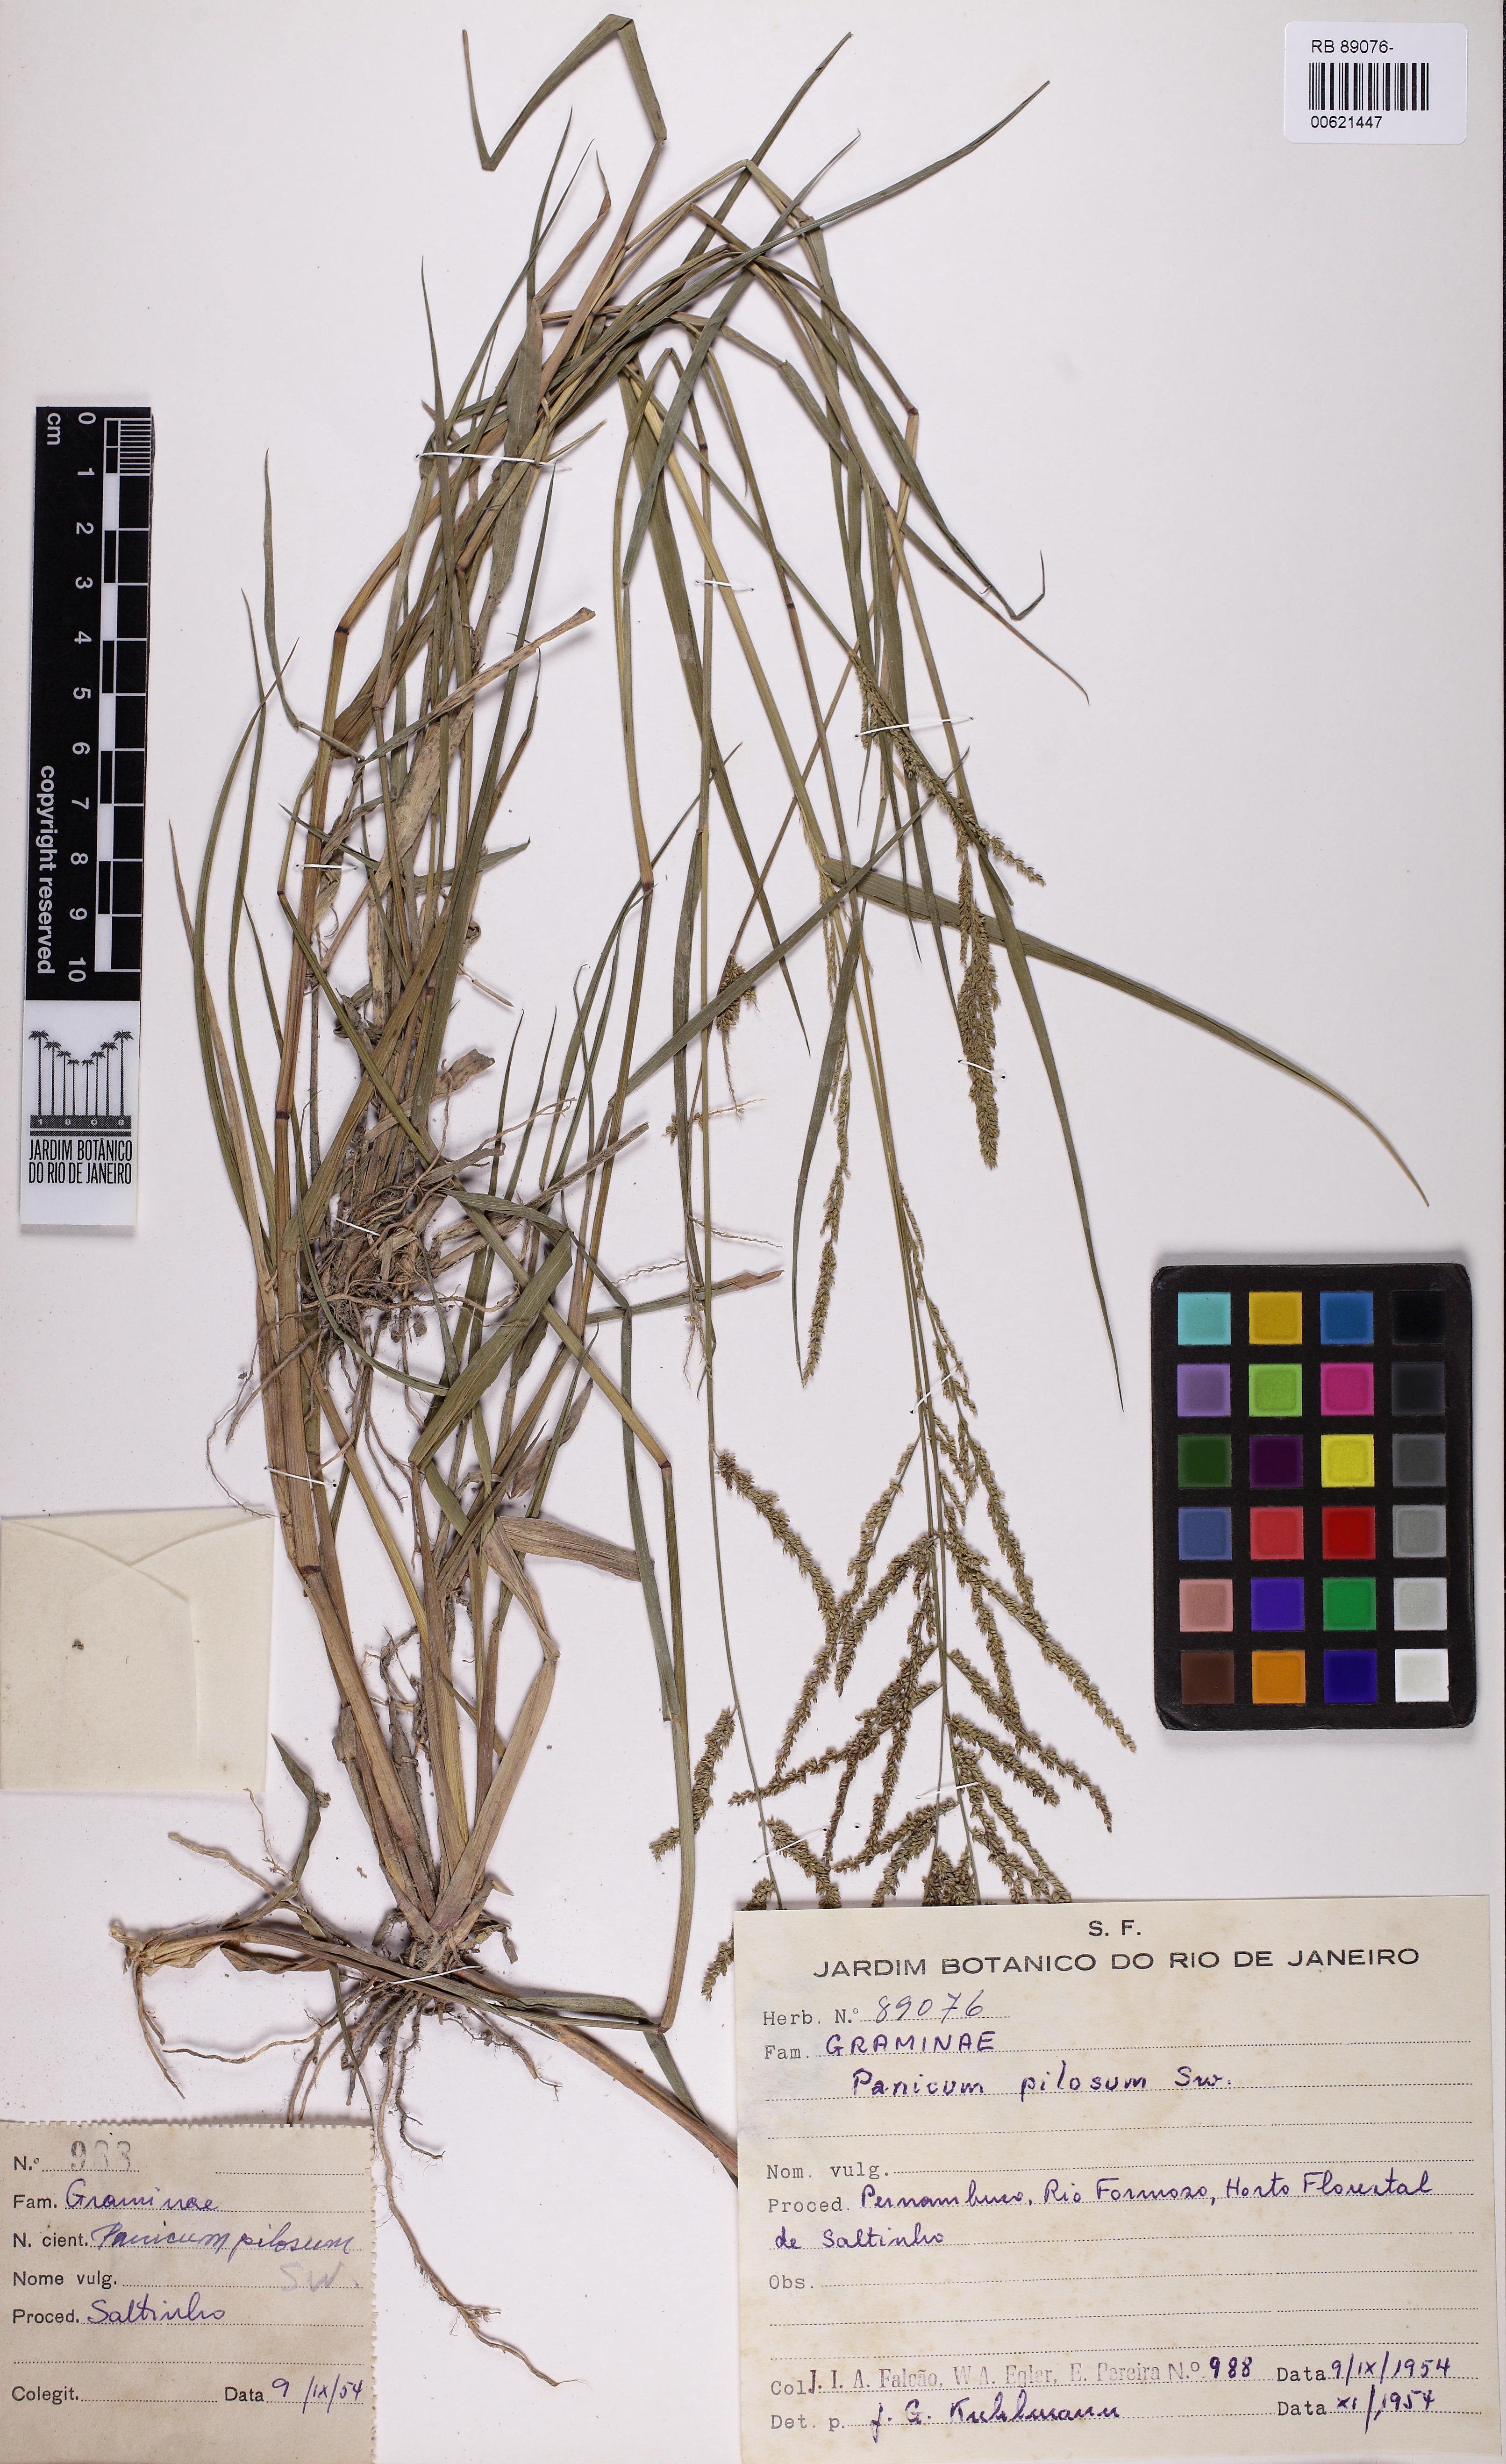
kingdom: Plantae
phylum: Tracheophyta
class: Liliopsida
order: Poales
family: Poaceae
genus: Rugoloa
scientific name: Rugoloa pilosa
